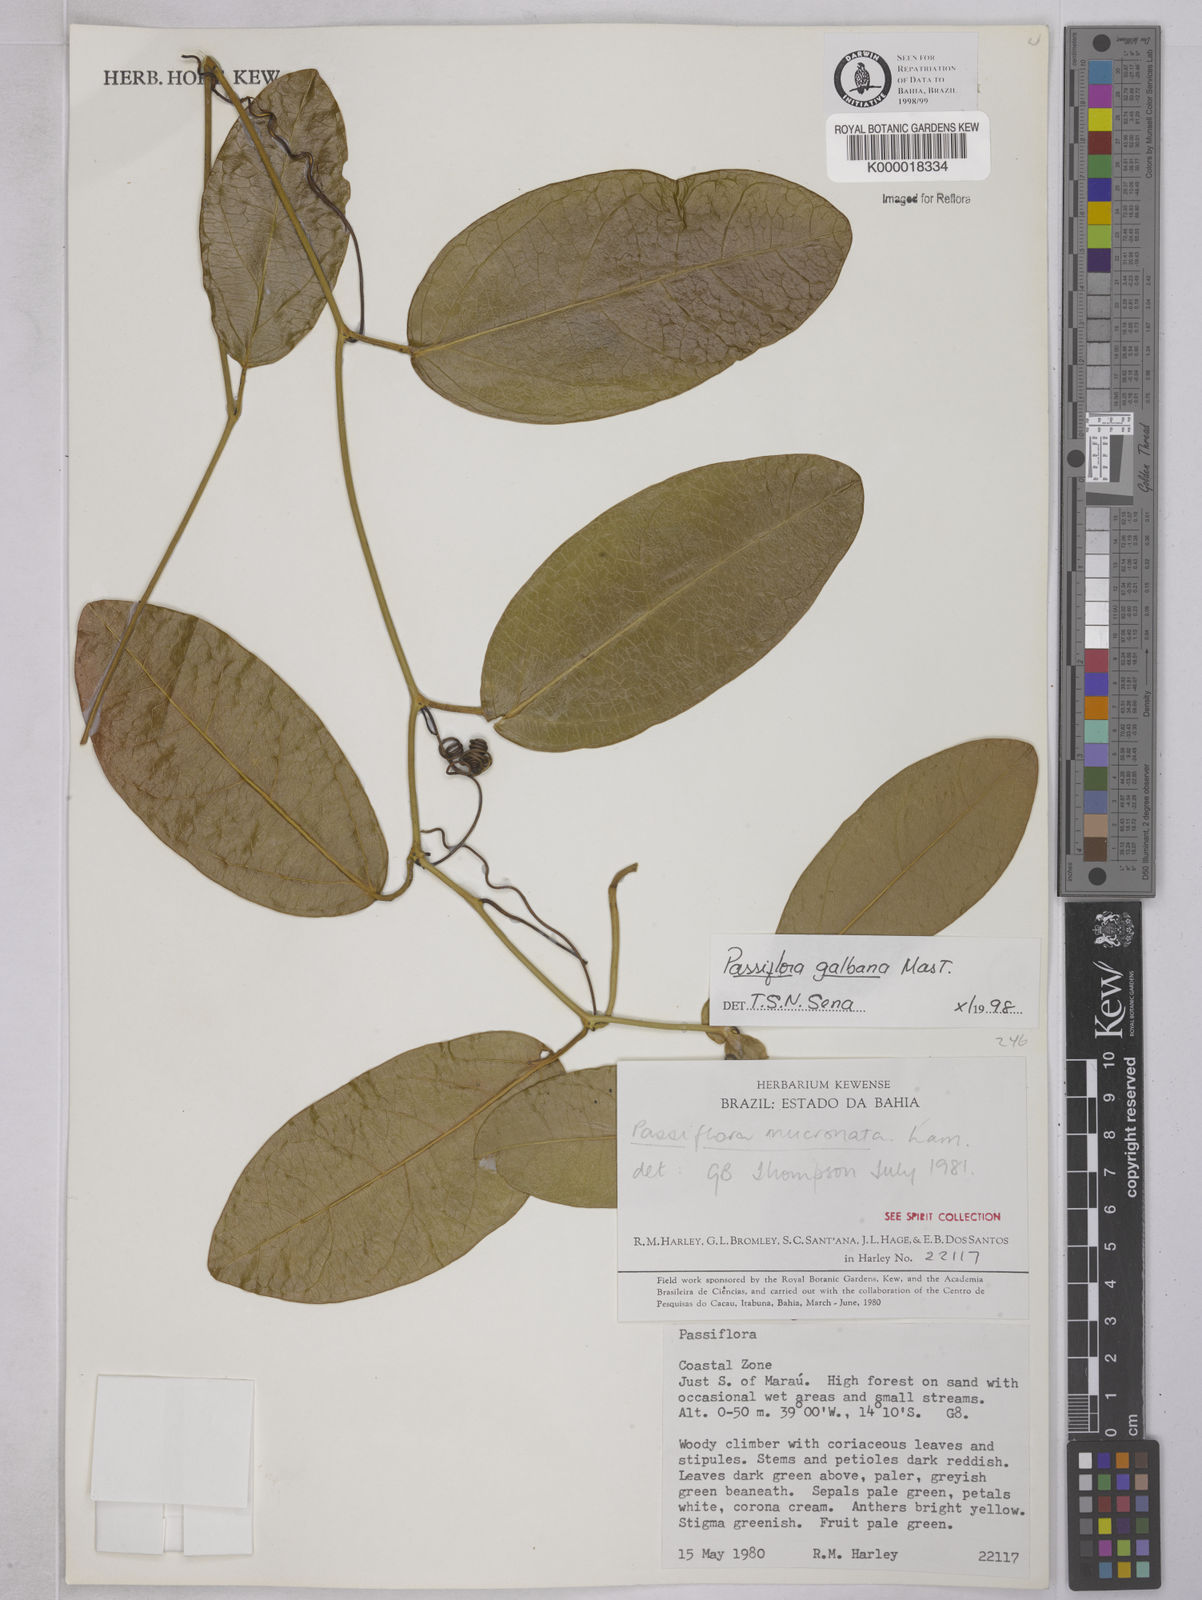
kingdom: Plantae
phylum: Tracheophyta
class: Magnoliopsida
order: Malpighiales
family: Passifloraceae
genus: Passiflora
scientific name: Passiflora silvestris
